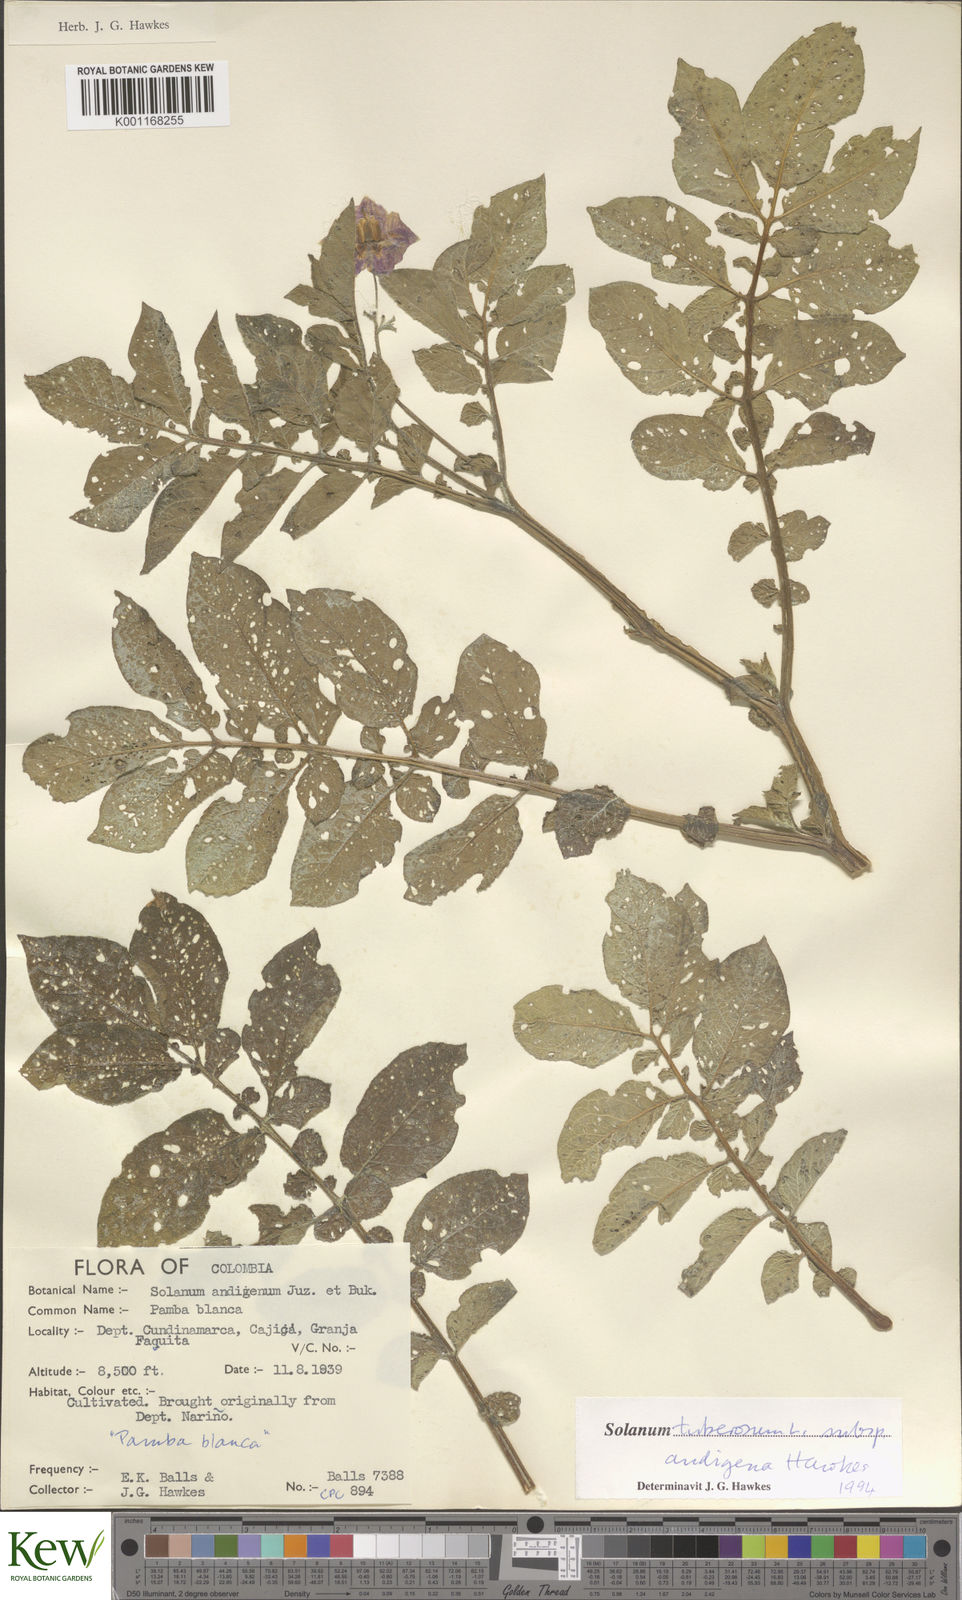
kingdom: Plantae
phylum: Tracheophyta
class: Magnoliopsida
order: Solanales
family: Solanaceae
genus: Solanum
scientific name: Solanum tuberosum
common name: Potato
